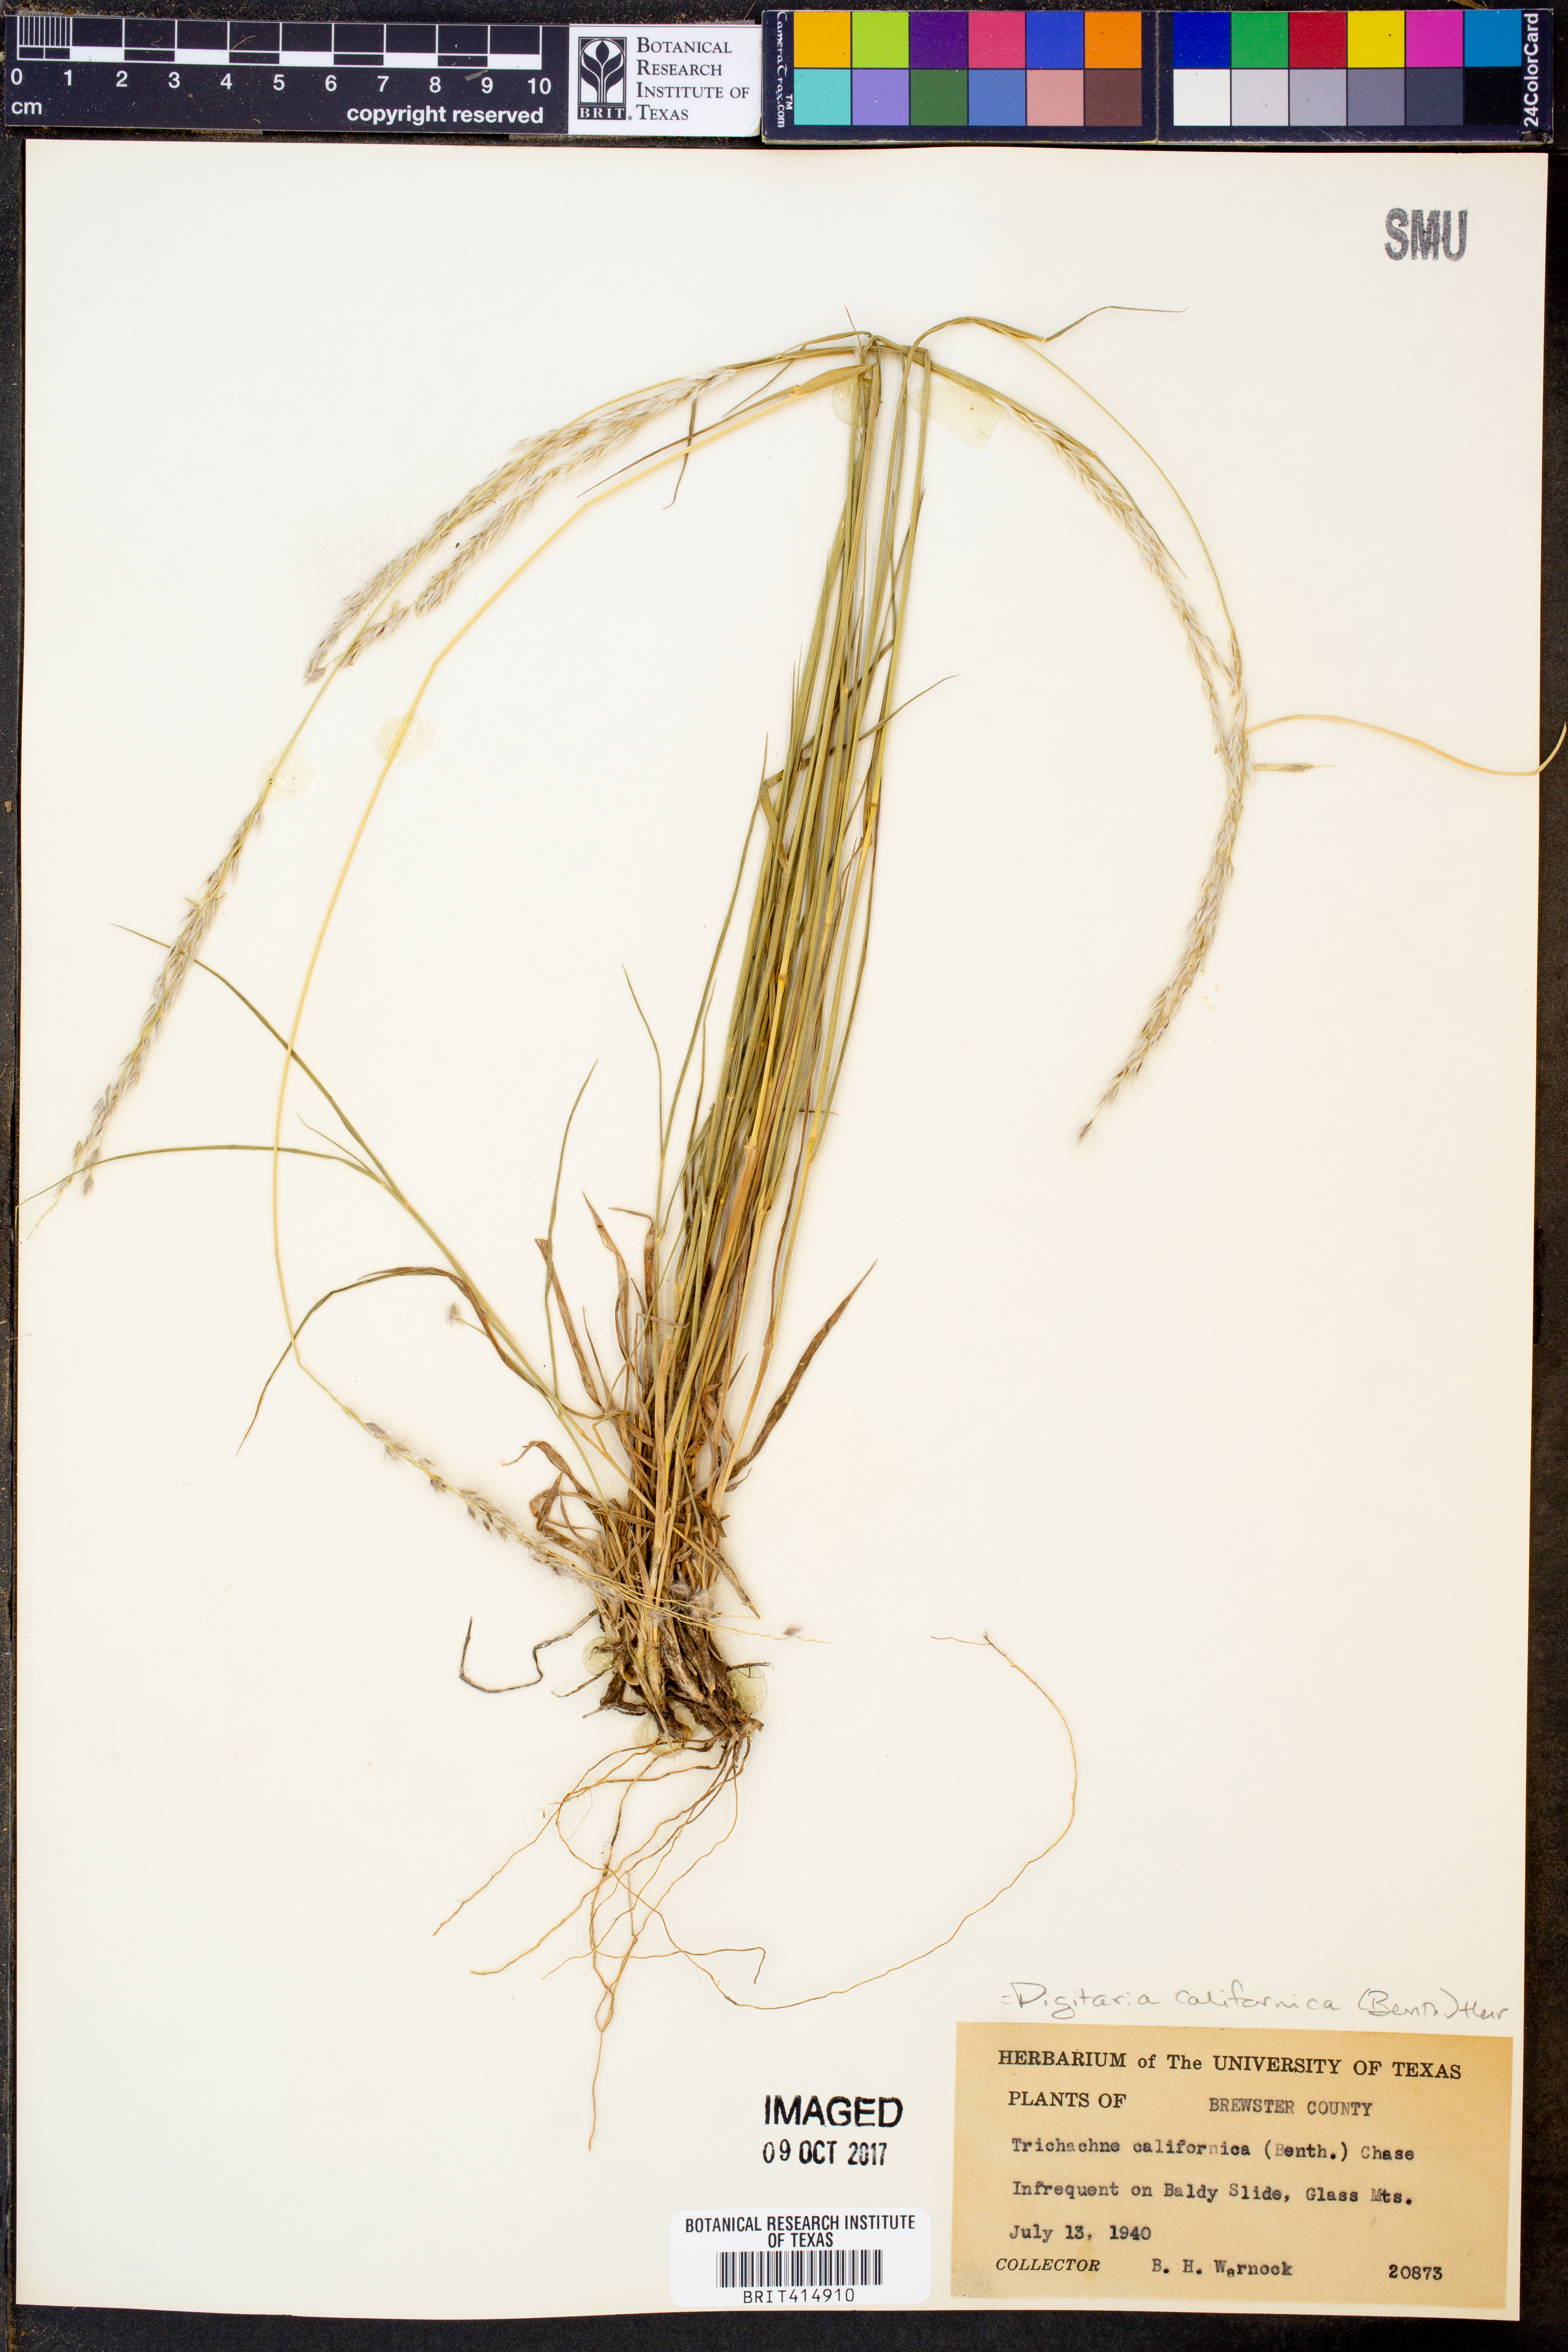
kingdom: Plantae
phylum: Tracheophyta
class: Liliopsida
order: Poales
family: Poaceae
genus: Digitaria
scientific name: Digitaria californica
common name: Arizona cottontop
